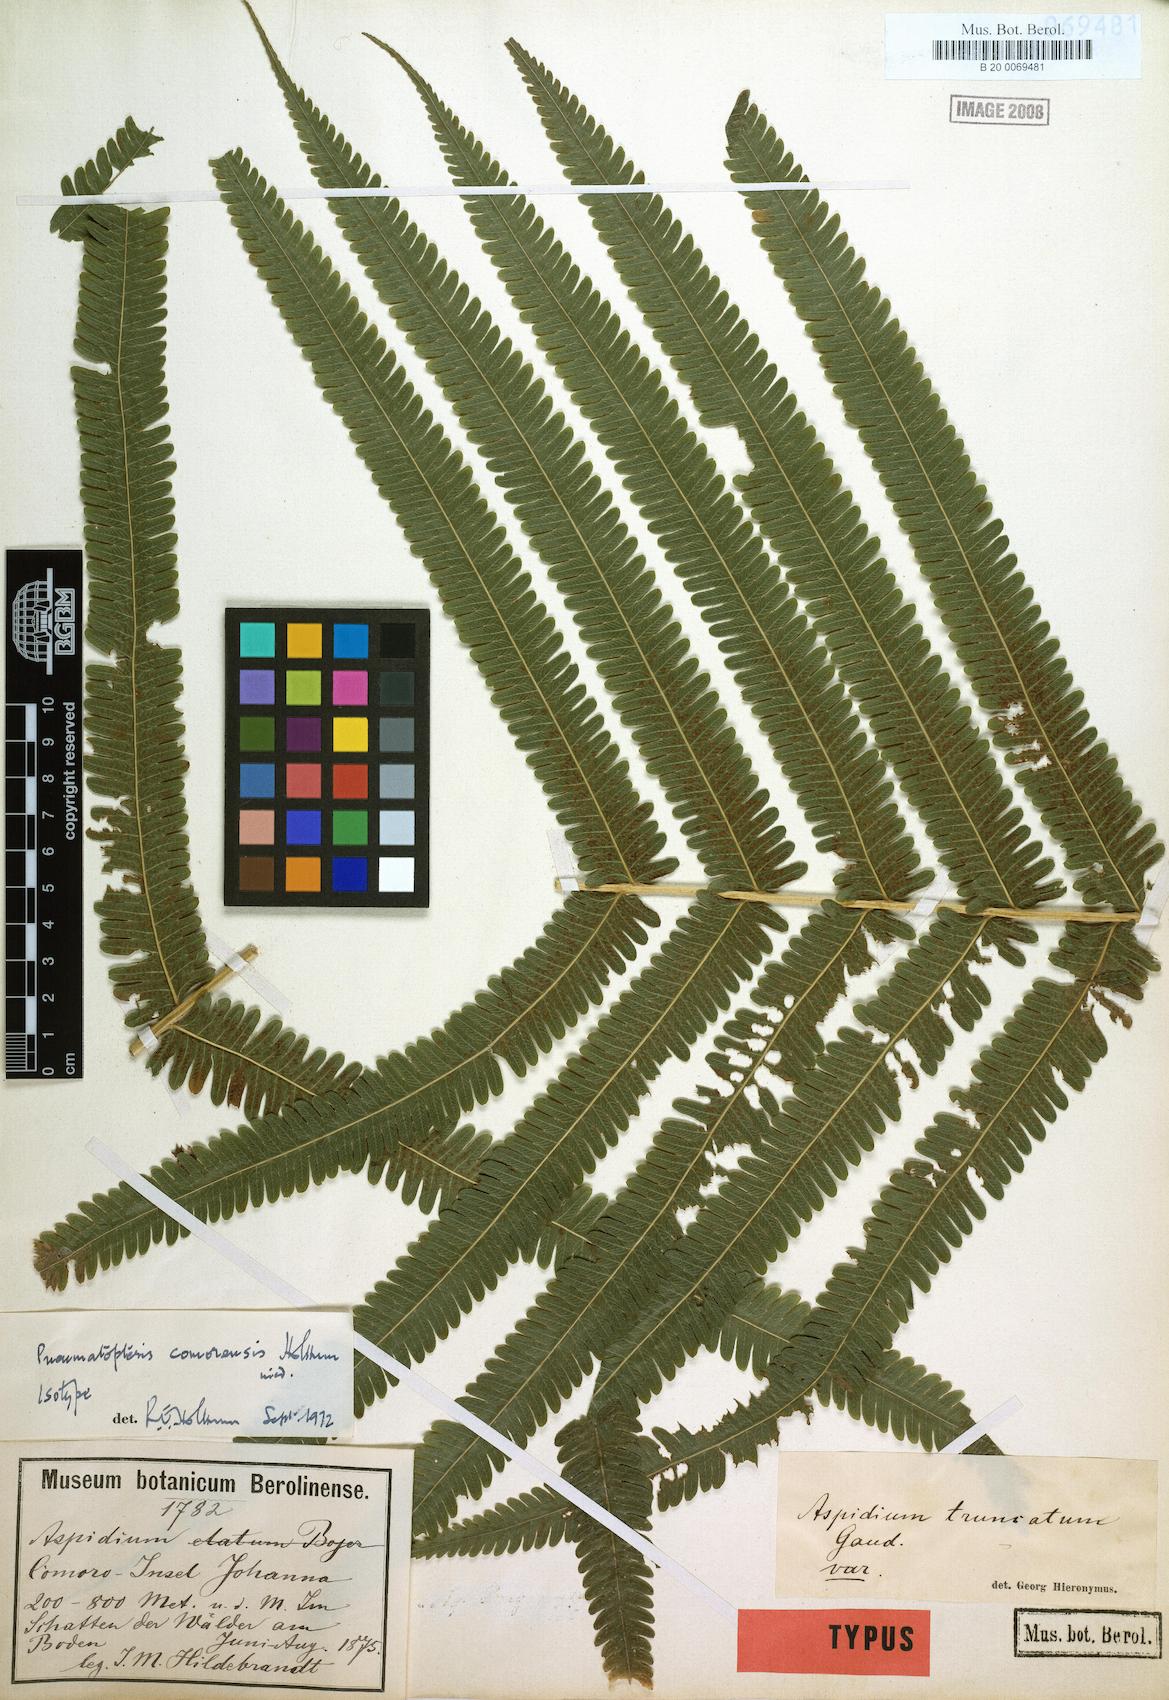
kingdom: Plantae
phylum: Tracheophyta
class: Polypodiopsida
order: Polypodiales
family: Thelypteridaceae
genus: Pneumatopteris
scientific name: Pneumatopteris comorensis
